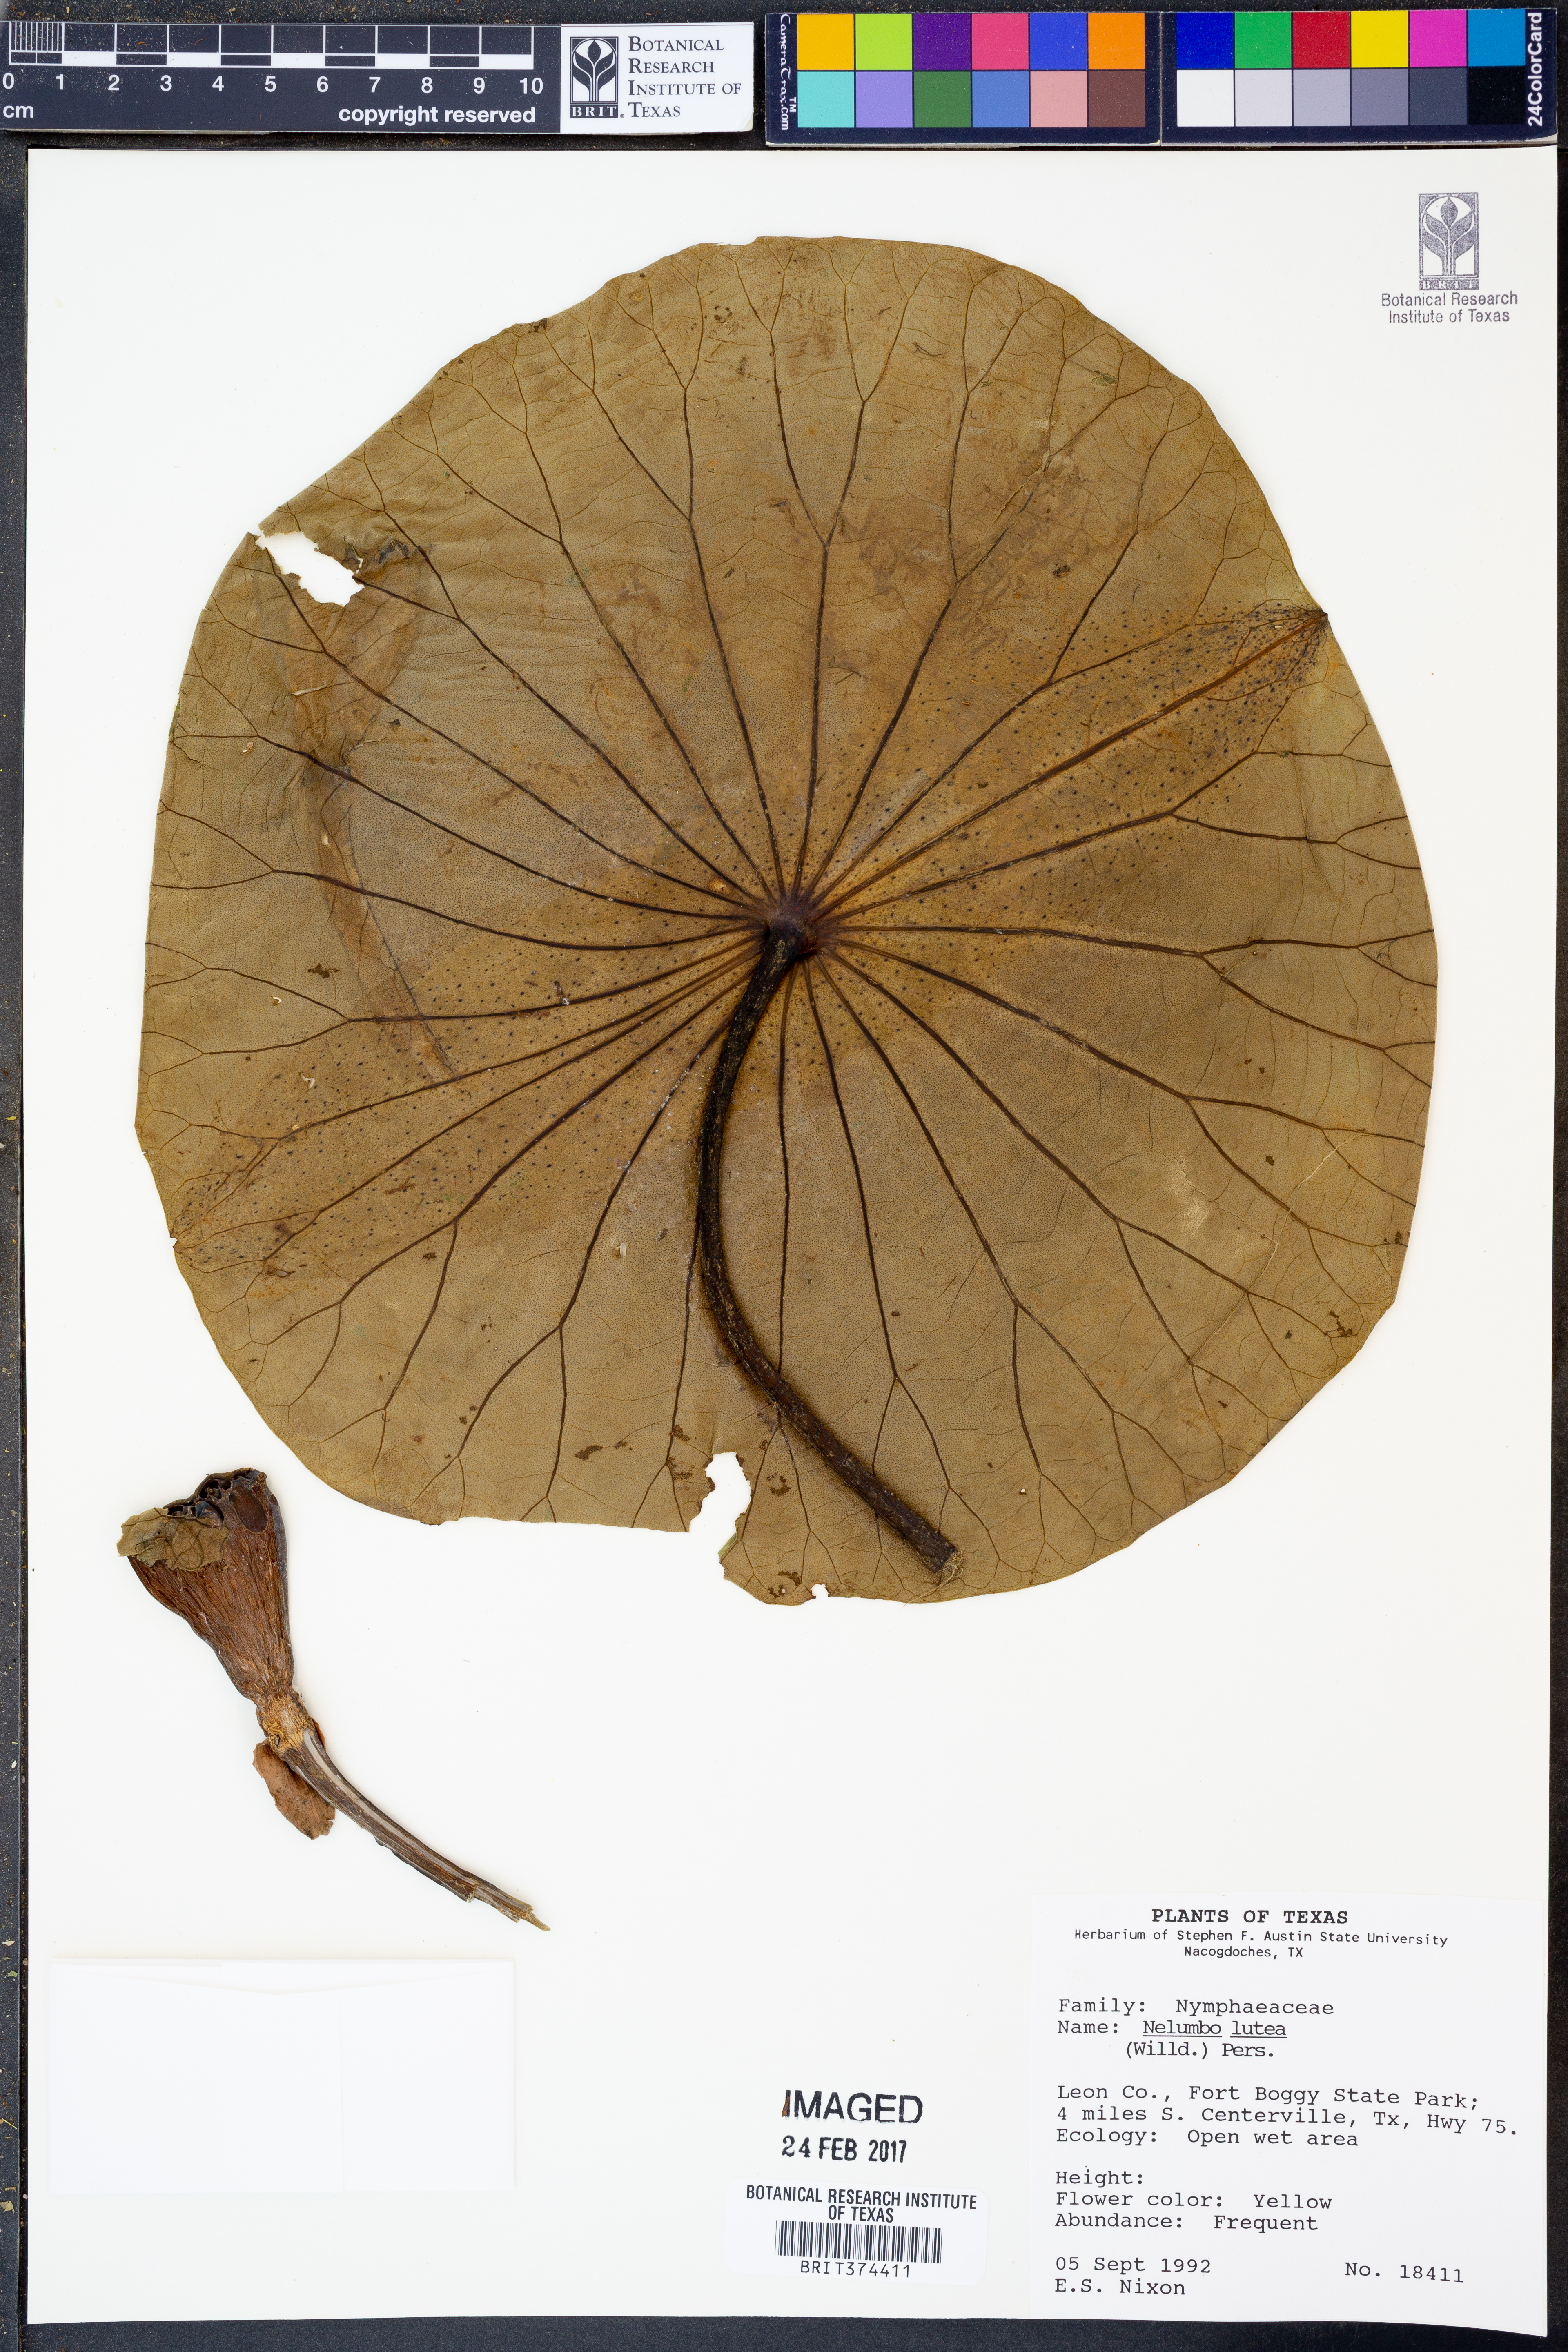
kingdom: Plantae
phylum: Tracheophyta
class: Magnoliopsida
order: Proteales
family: Nelumbonaceae
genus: Nelumbo
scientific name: Nelumbo lutea
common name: American lotus
